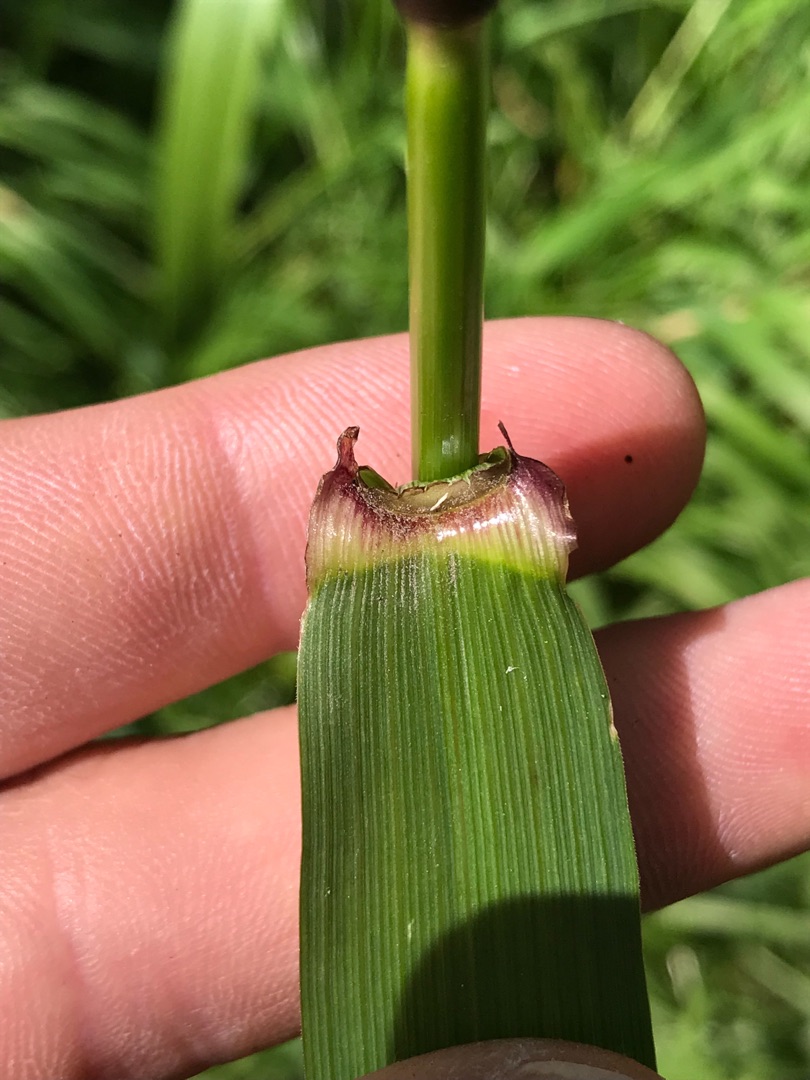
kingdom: Plantae
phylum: Tracheophyta
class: Liliopsida
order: Poales
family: Poaceae
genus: Lolium
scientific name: Lolium giganteum
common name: Kæmpe-svingel
